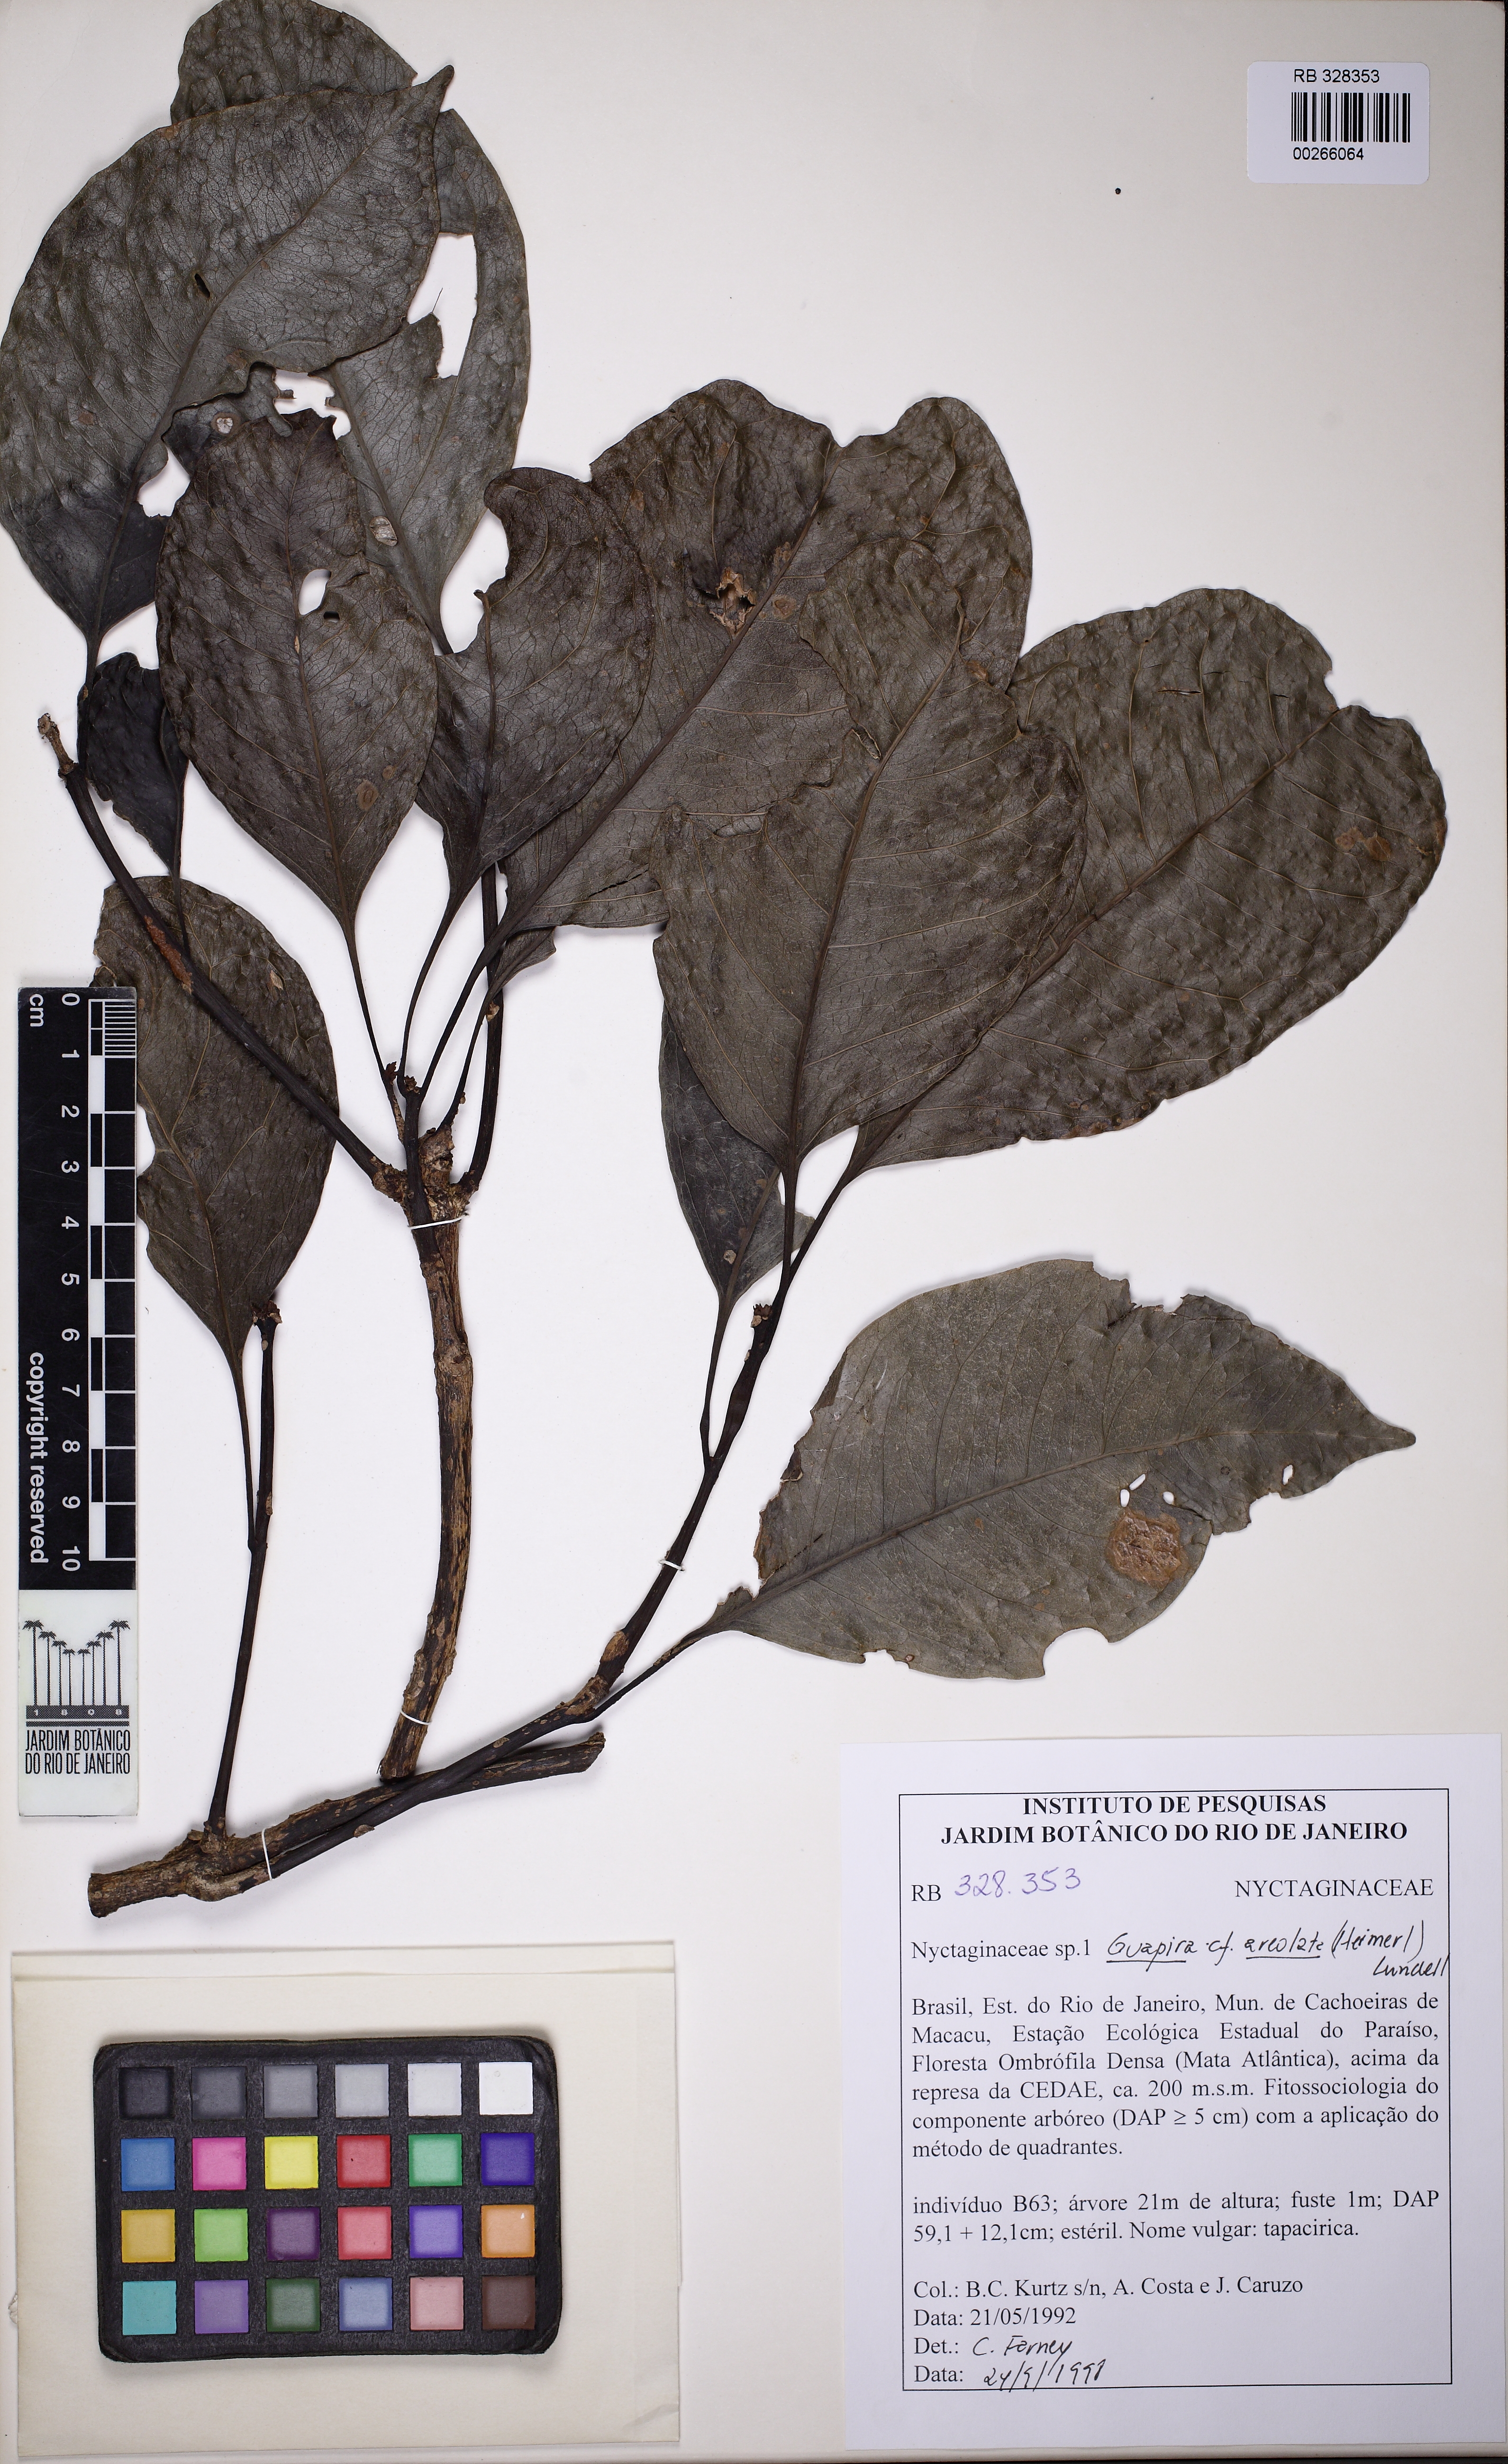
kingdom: Plantae
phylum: Tracheophyta
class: Magnoliopsida
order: Caryophyllales
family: Nyctaginaceae
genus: Guapira
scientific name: Guapira areolata
